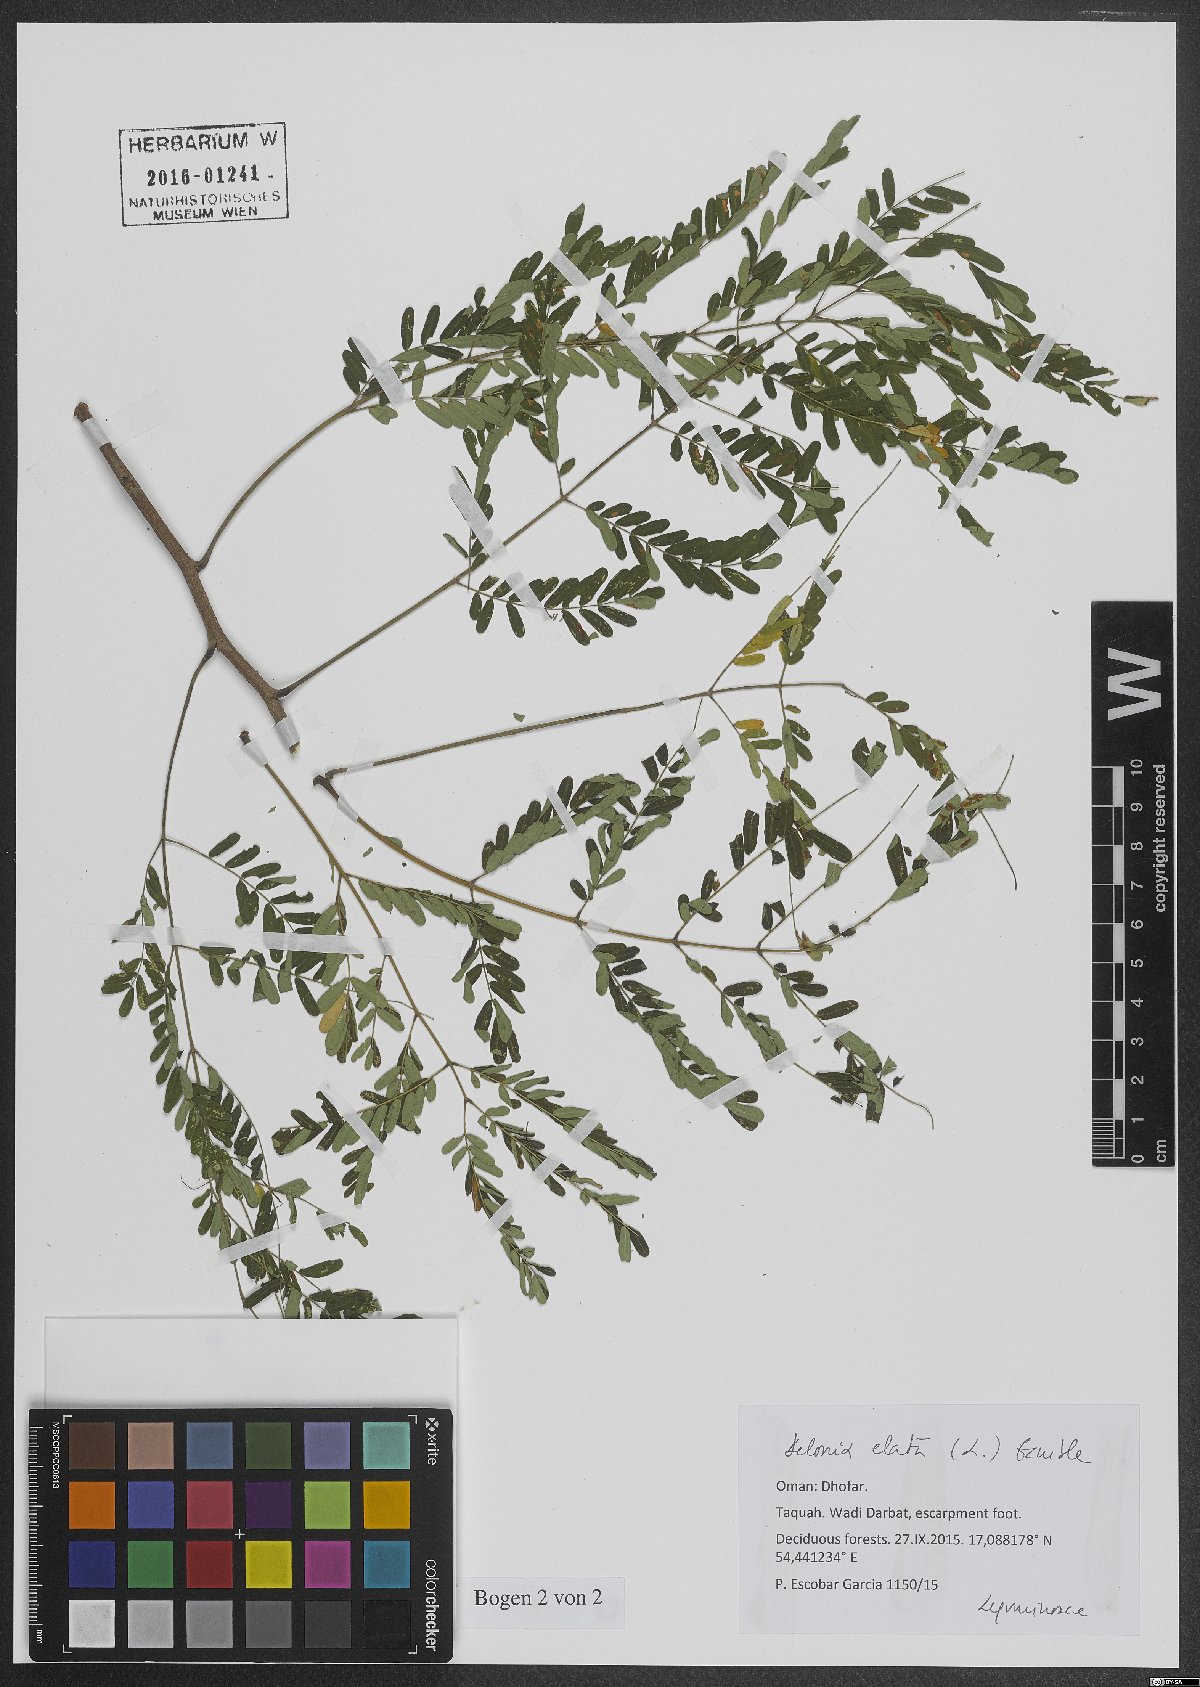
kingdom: Plantae
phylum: Tracheophyta
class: Magnoliopsida
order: Fabales
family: Fabaceae
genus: Delonix
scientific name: Delonix elata
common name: Creamy peacock flower
